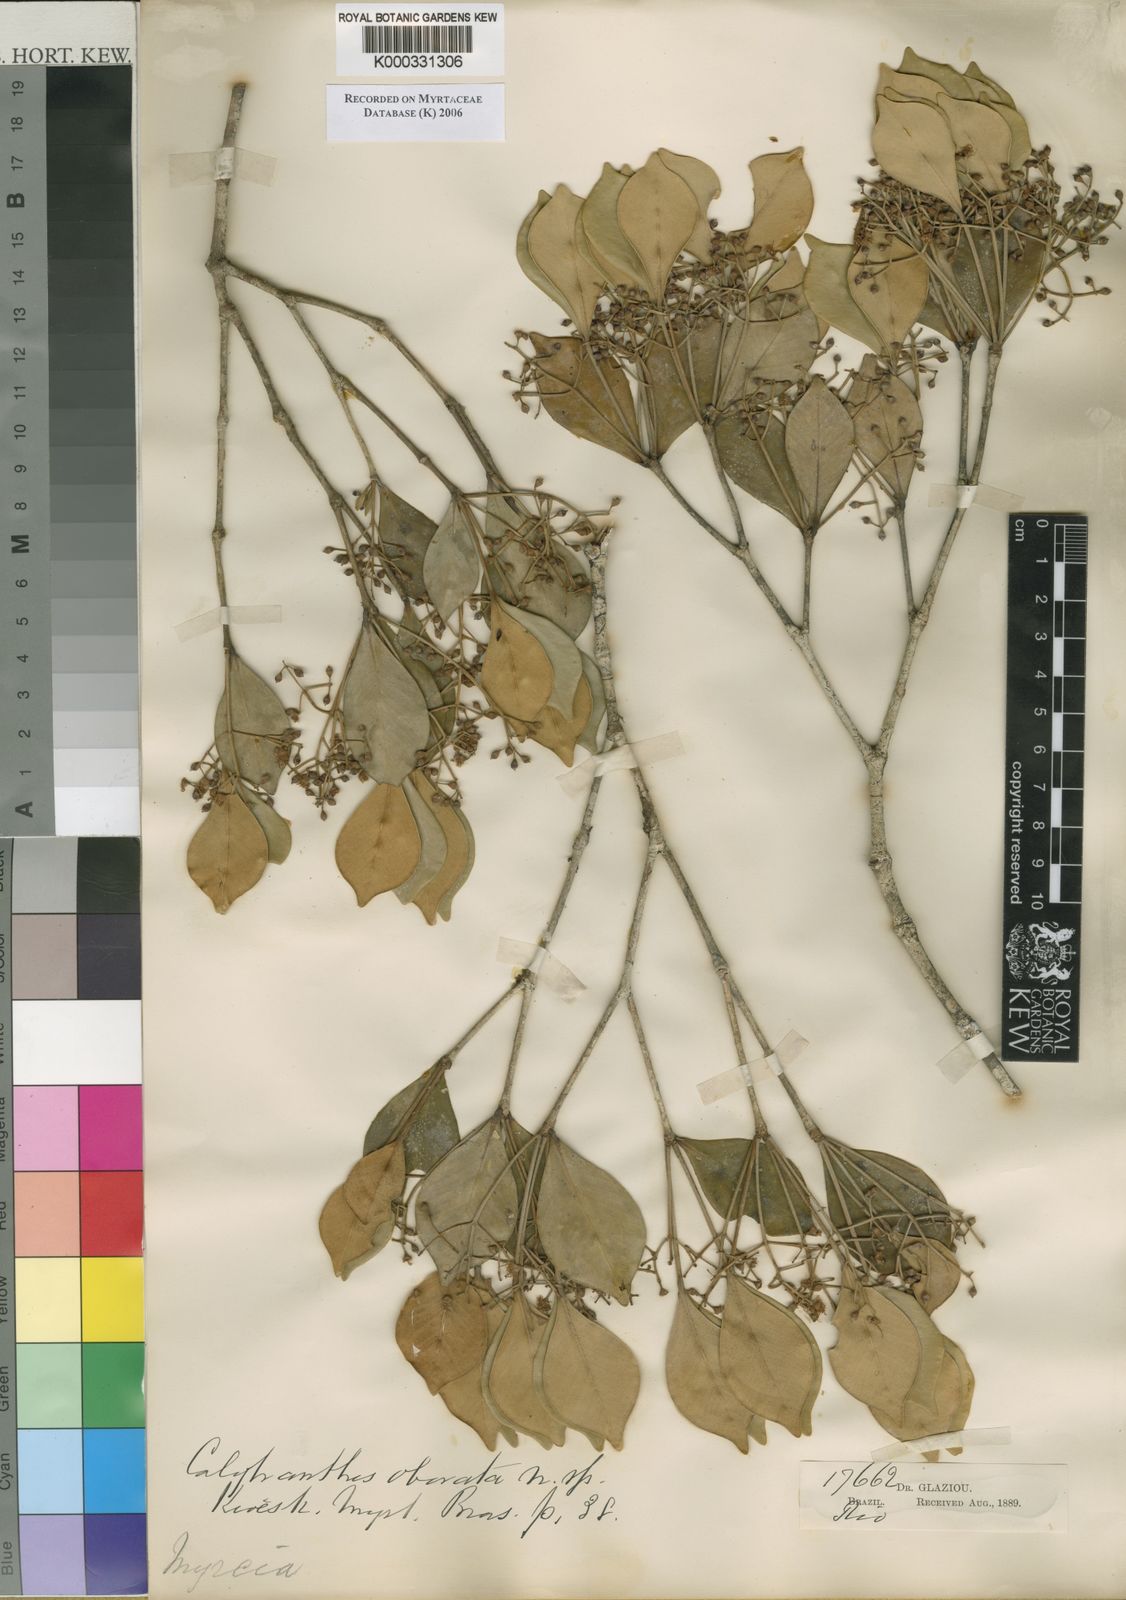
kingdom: Plantae
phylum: Tracheophyta
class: Magnoliopsida
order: Myrtales
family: Myrtaceae
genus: Myrcia
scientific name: Myrcia legrandii
